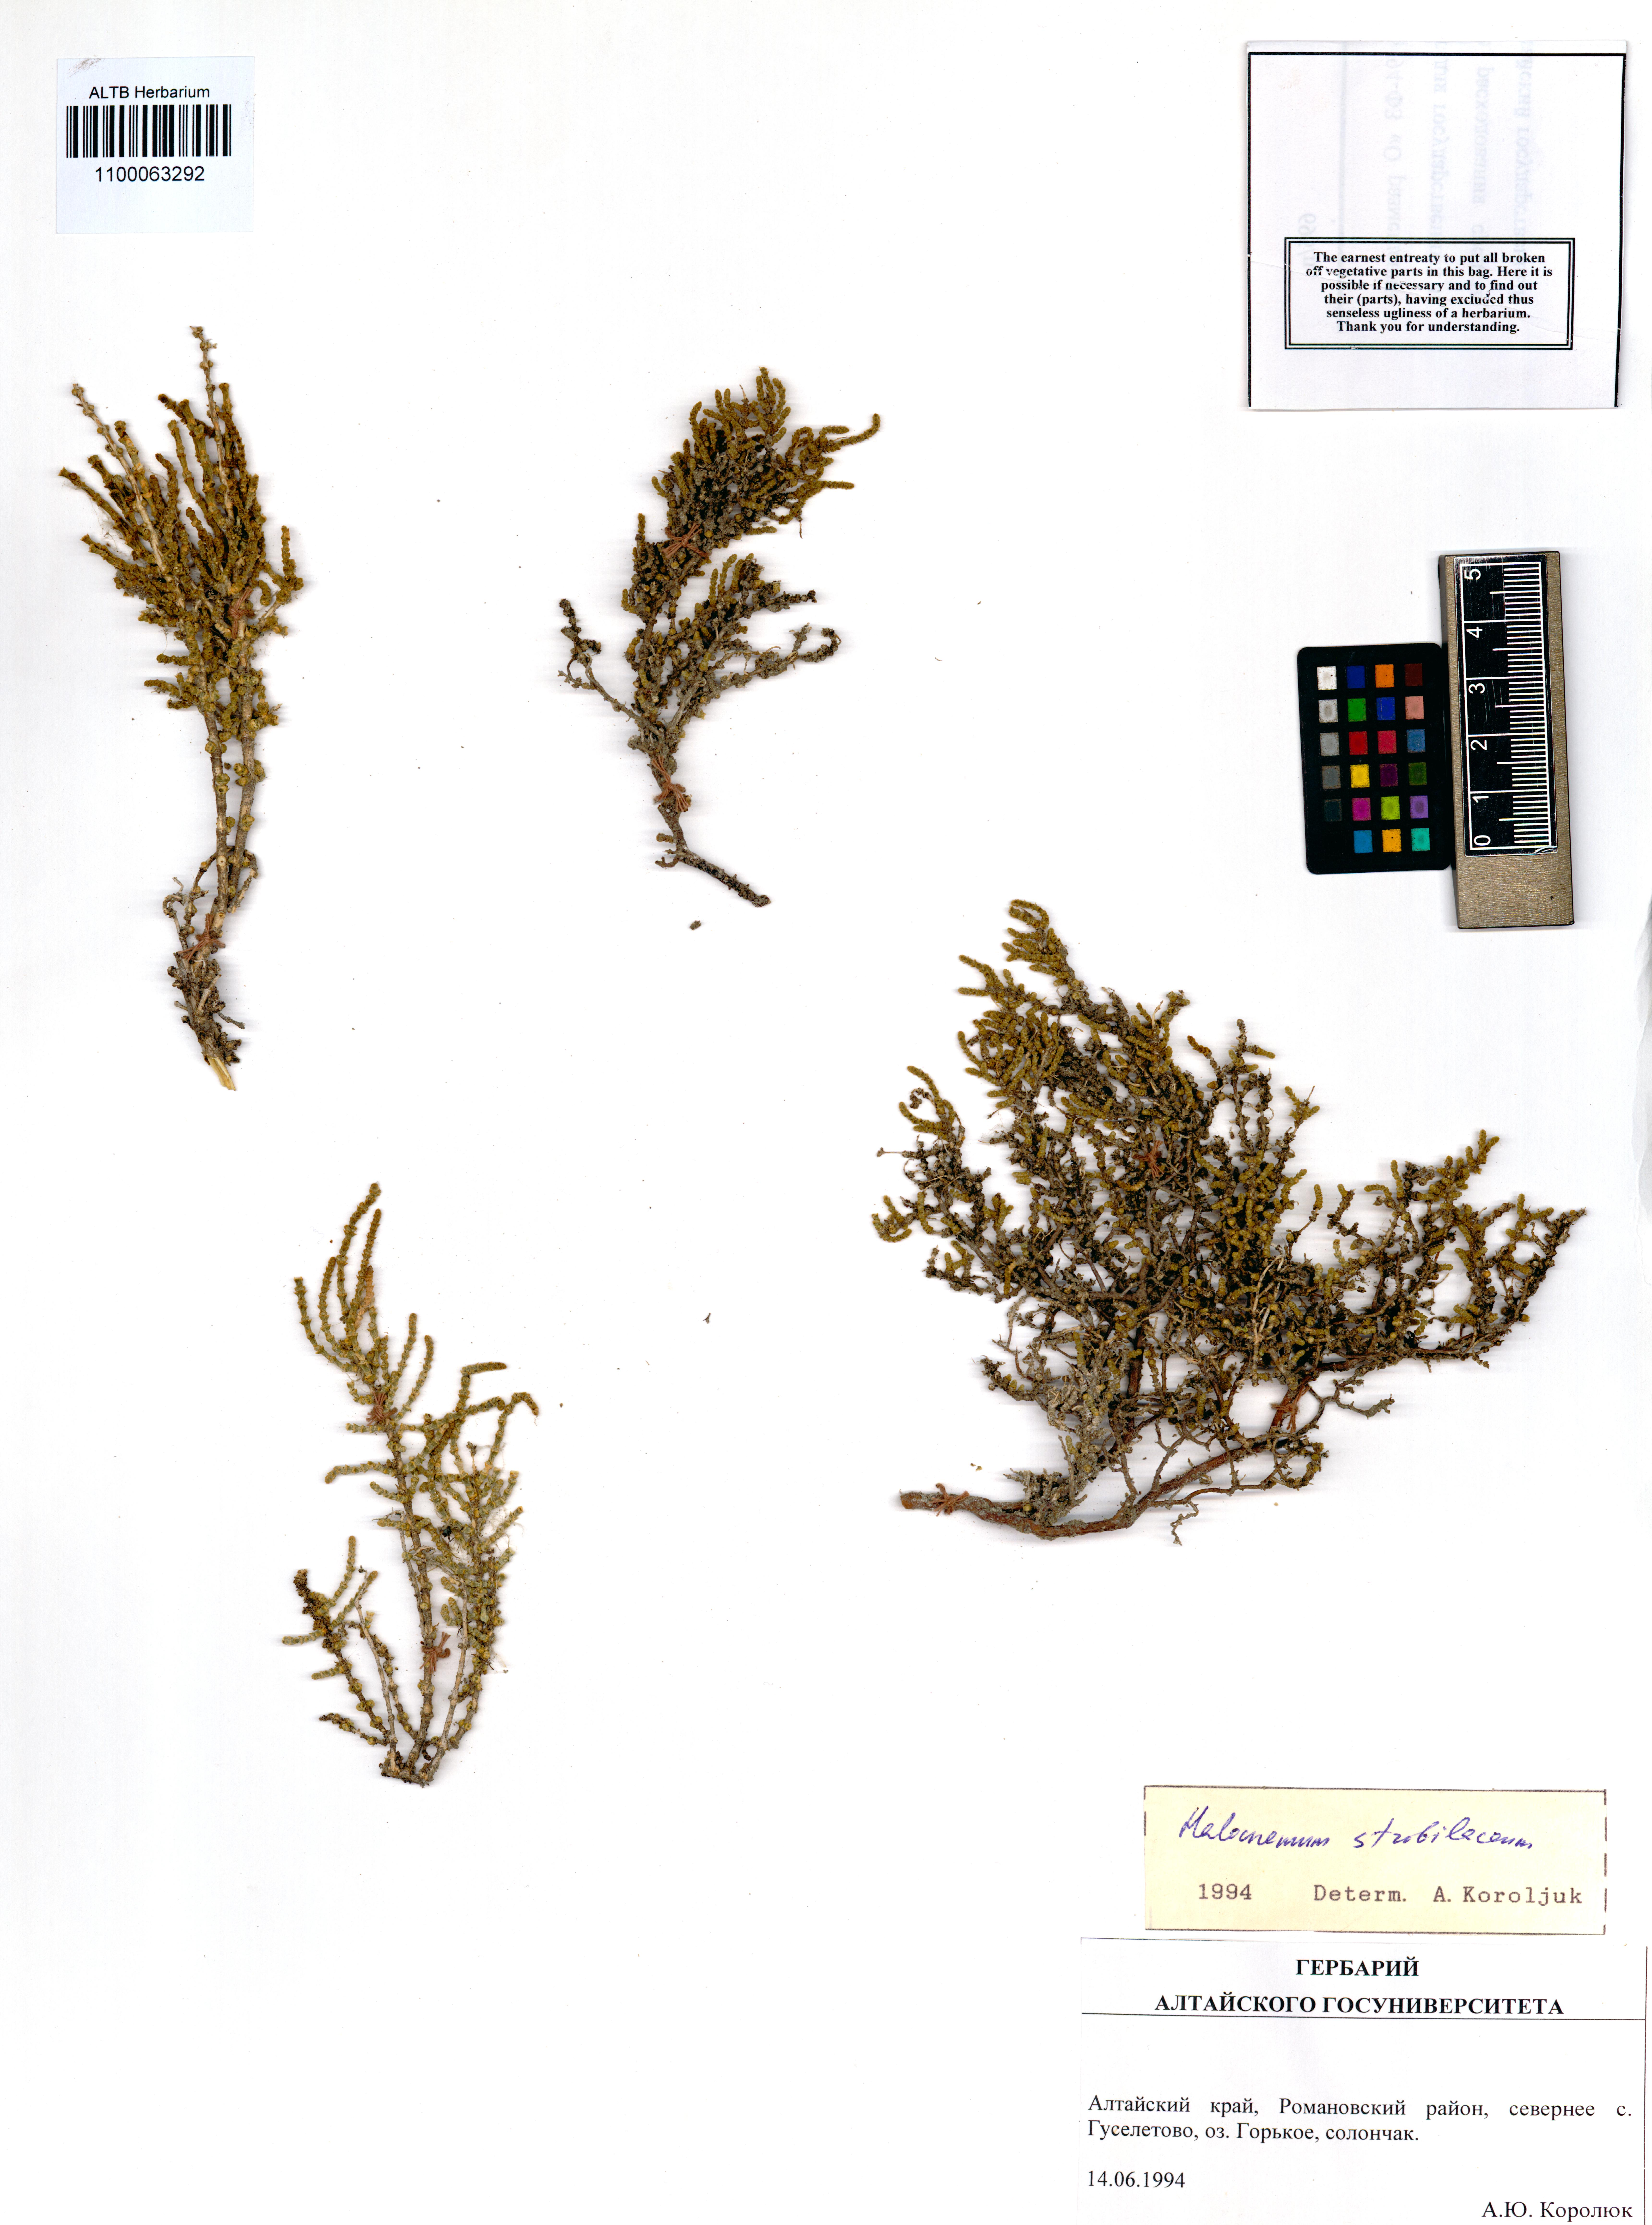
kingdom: Plantae
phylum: Tracheophyta
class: Magnoliopsida
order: Caryophyllales
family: Amaranthaceae
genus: Halocnemum
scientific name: Halocnemum strobilaceum
